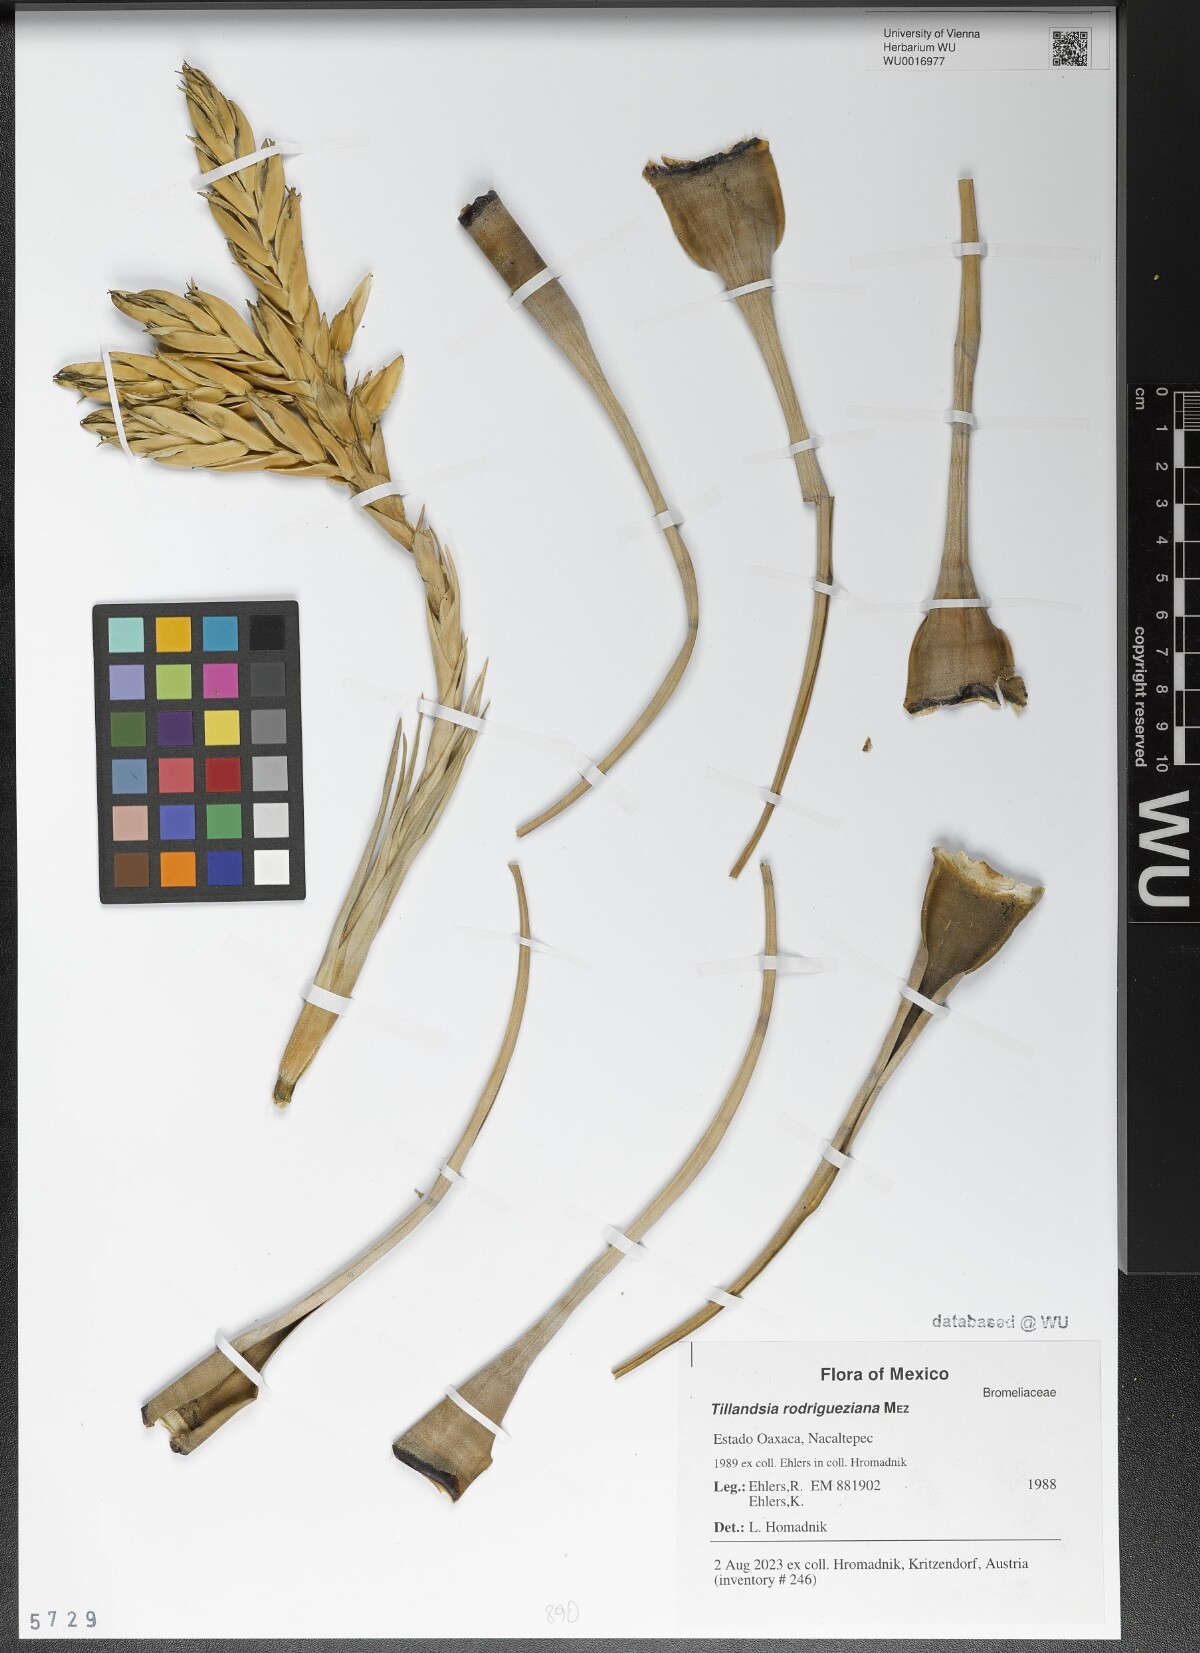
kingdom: Plantae
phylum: Tracheophyta
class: Liliopsida
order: Poales
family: Bromeliaceae
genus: Tillandsia
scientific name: Tillandsia rodrigueziana
